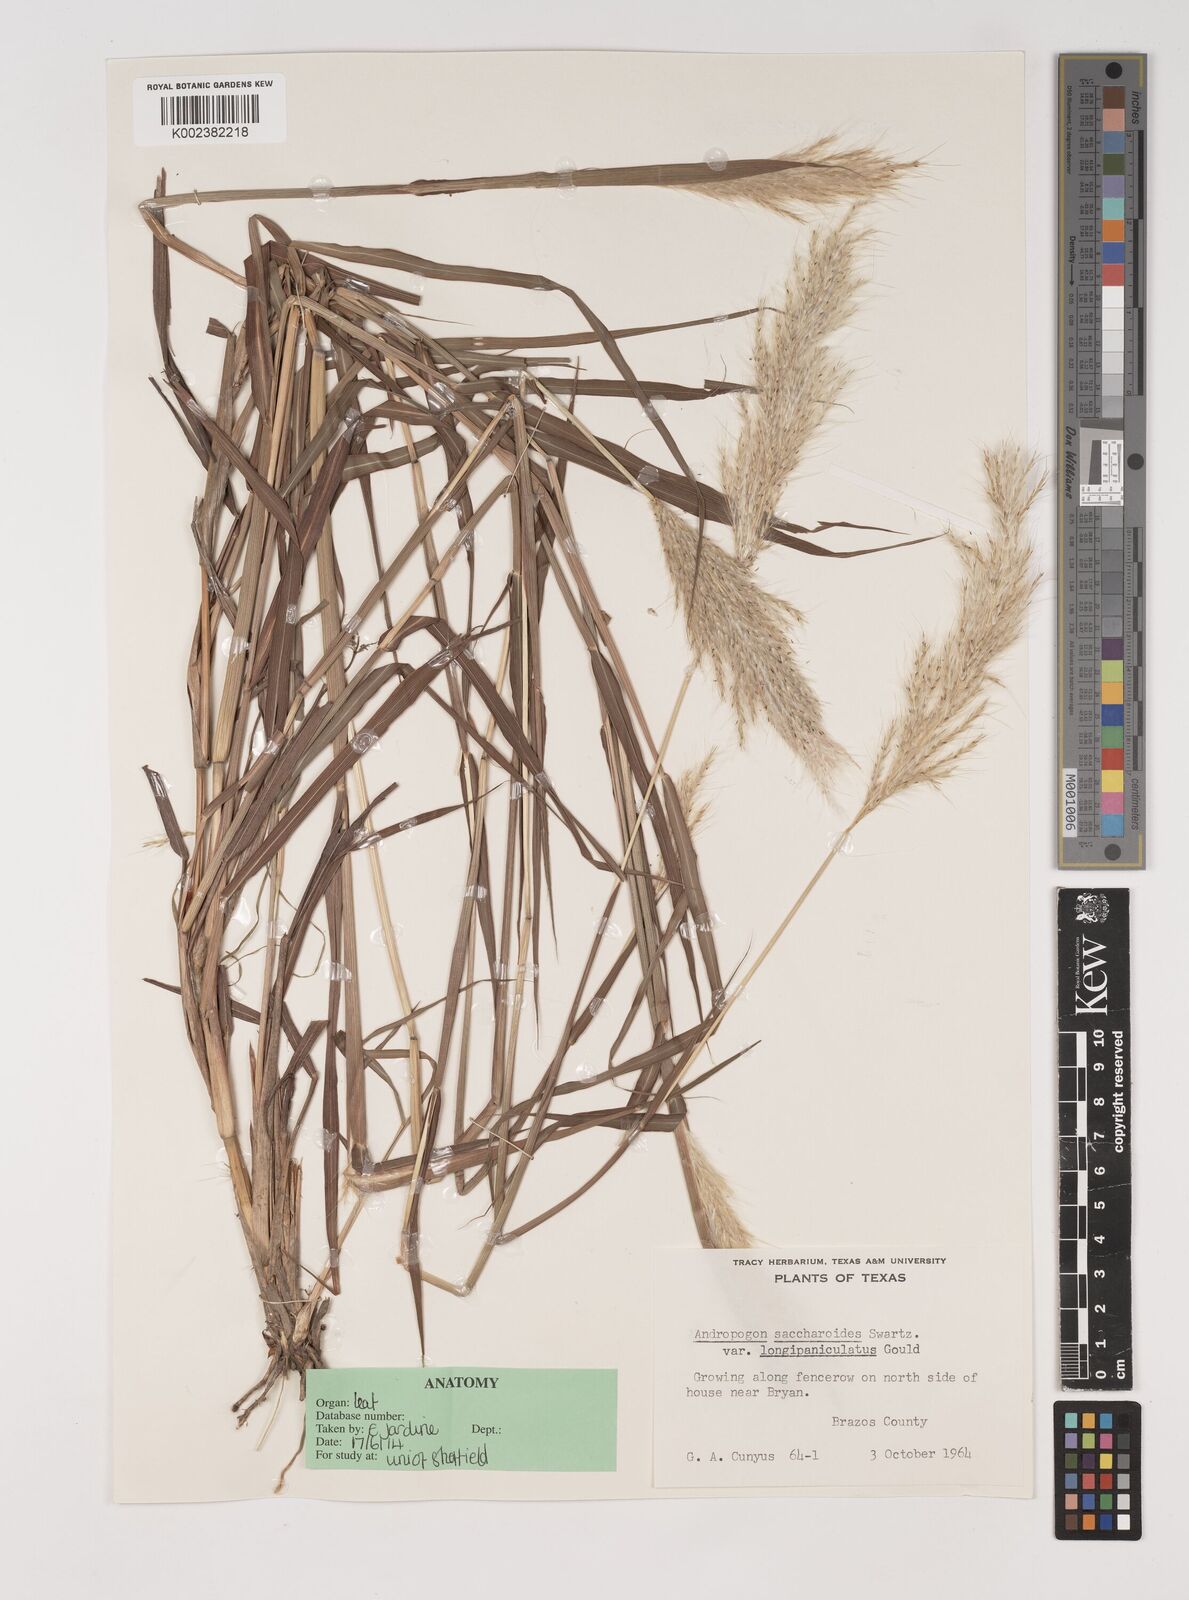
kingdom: Plantae
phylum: Tracheophyta
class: Liliopsida
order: Poales
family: Poaceae
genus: Bothriochloa
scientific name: Bothriochloa longipaniculata
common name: Longspike silver bluestem
